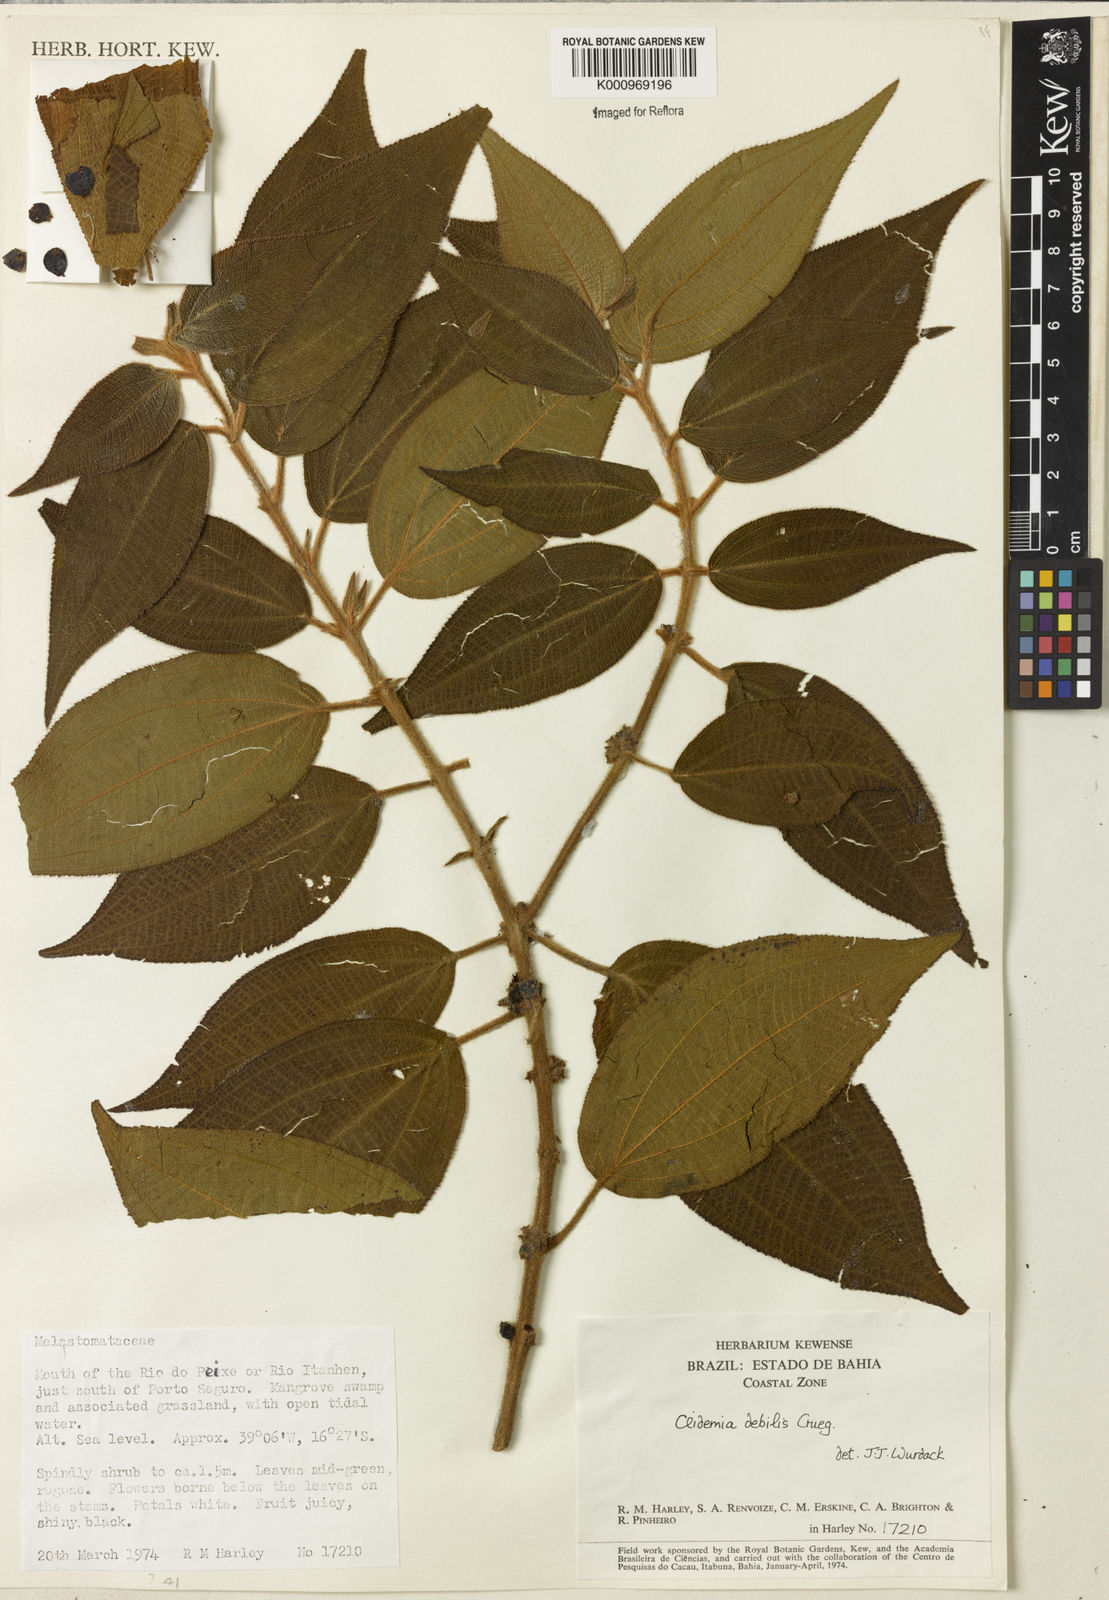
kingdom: Plantae
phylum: Tracheophyta
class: Magnoliopsida
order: Myrtales
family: Melastomataceae
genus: Miconia
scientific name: Miconia debilis
